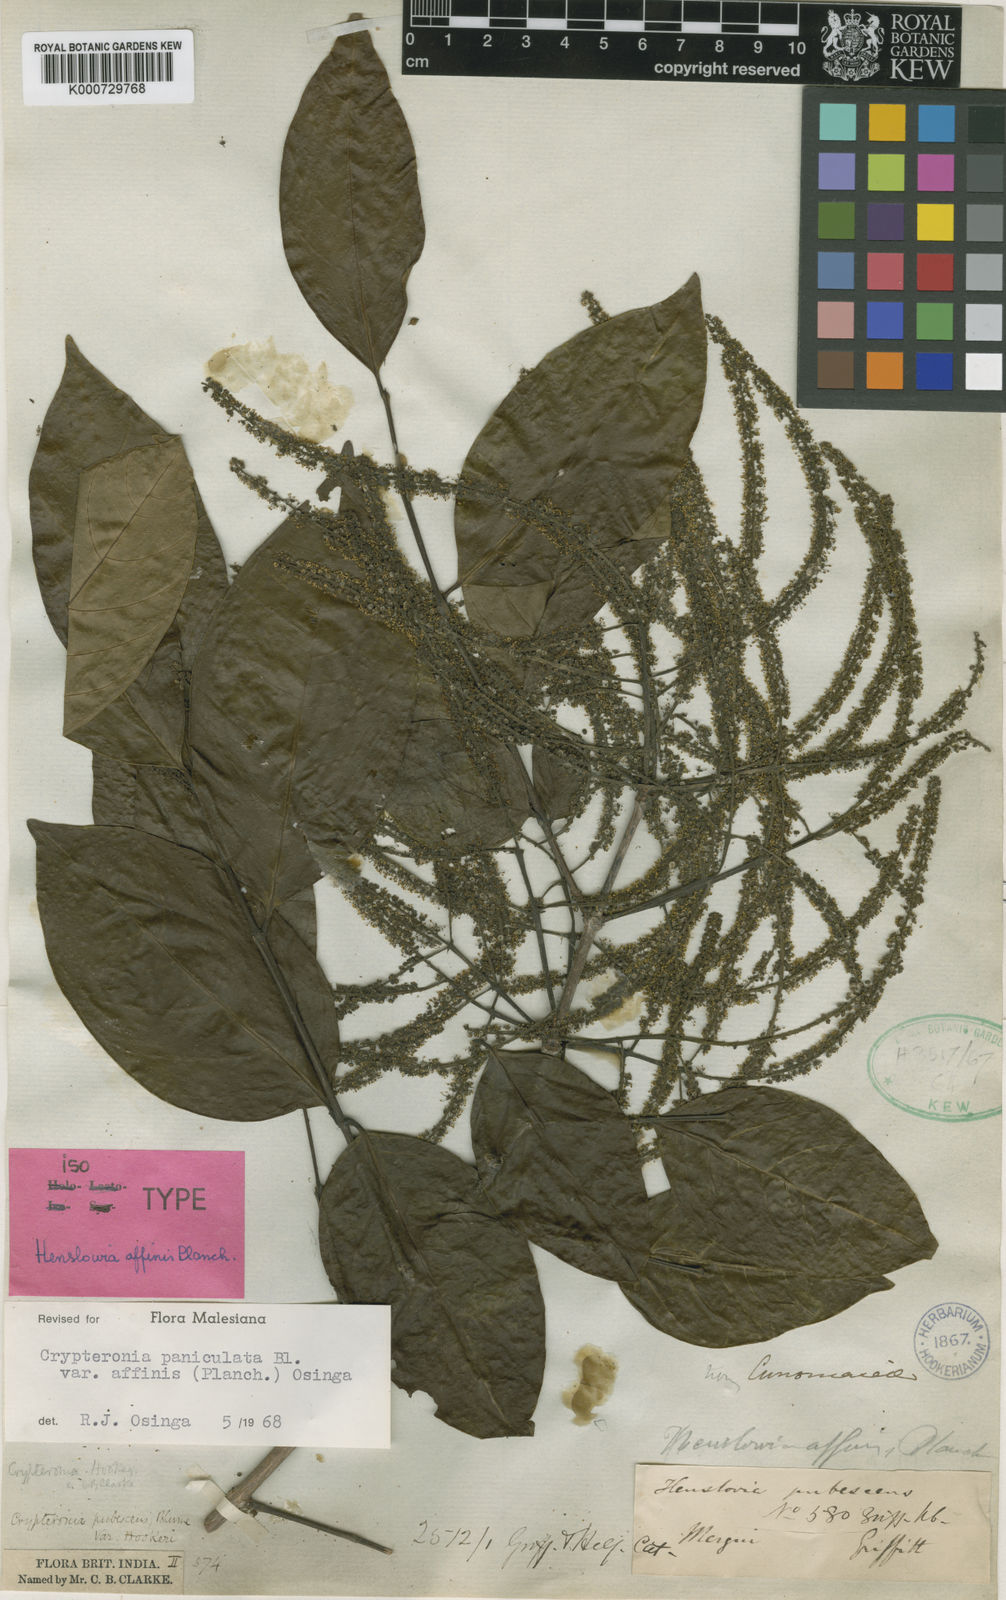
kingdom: Plantae
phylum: Tracheophyta
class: Magnoliopsida
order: Myrtales
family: Crypteroniaceae
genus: Crypteronia
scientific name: Crypteronia paniculata
